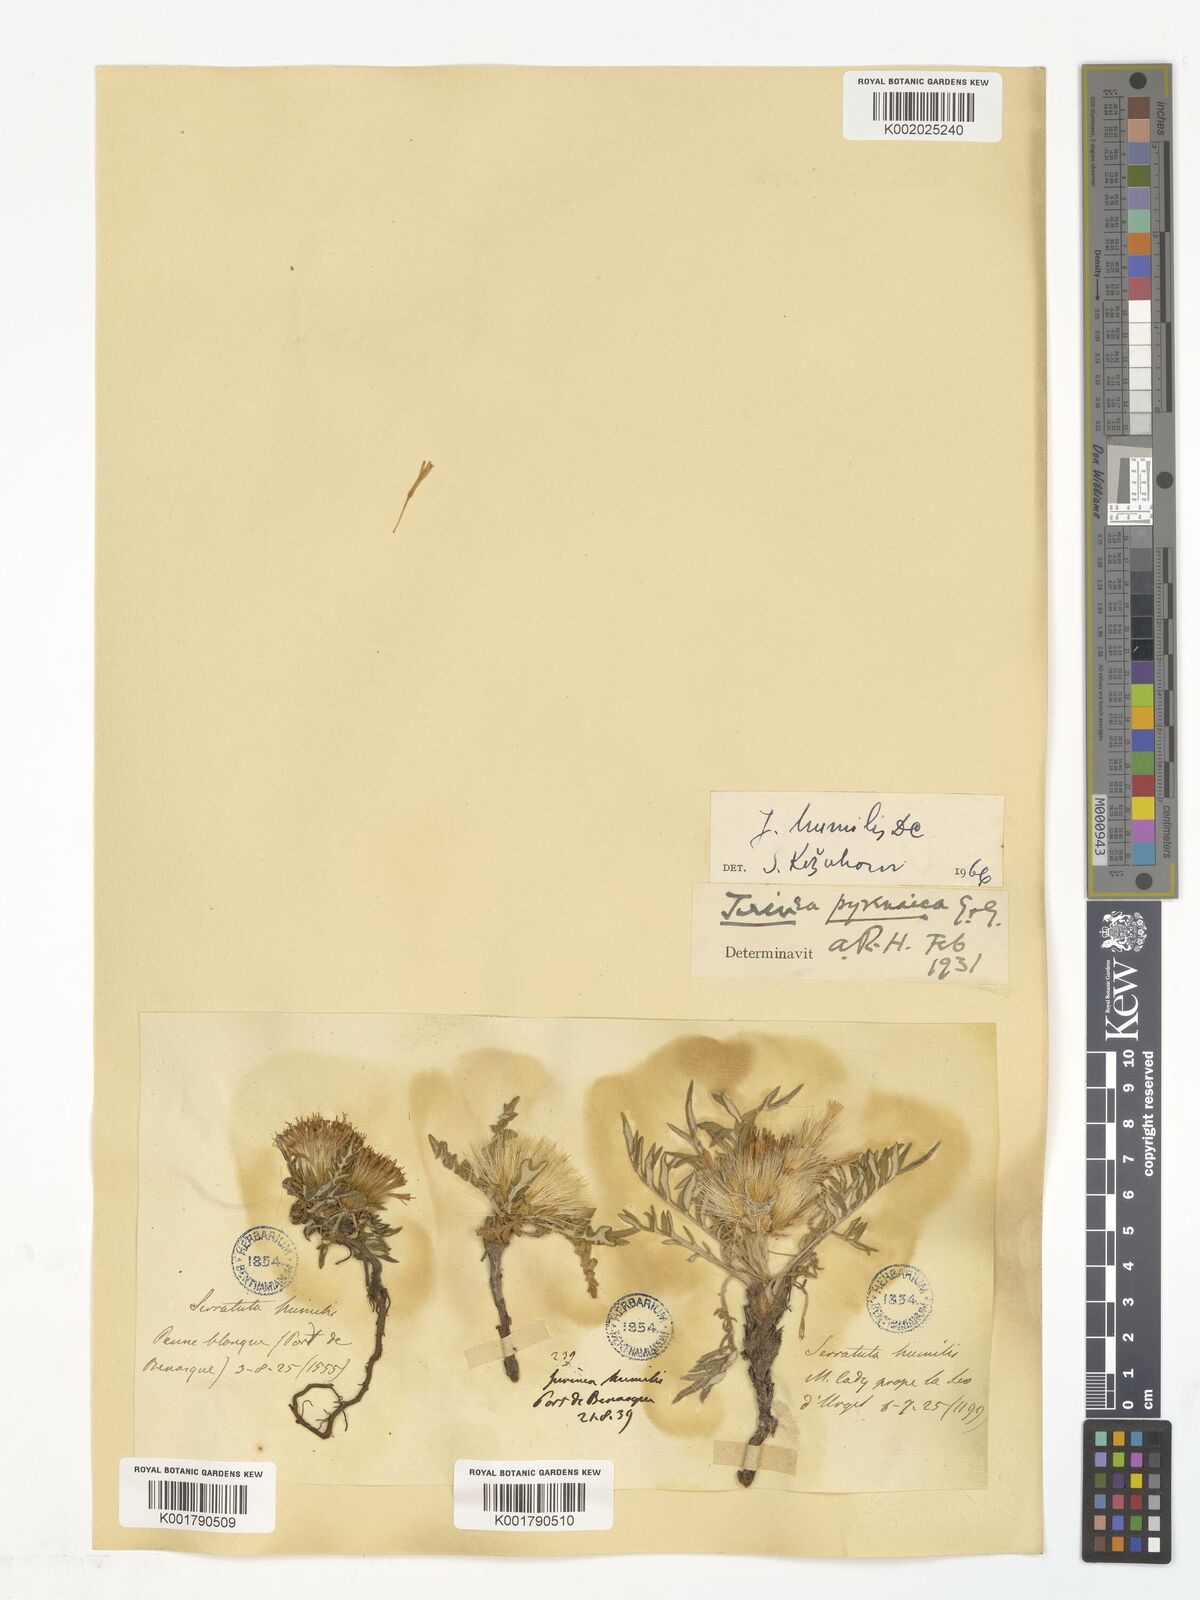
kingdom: Plantae
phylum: Tracheophyta
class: Magnoliopsida
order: Asterales
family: Asteraceae
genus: Jurinea
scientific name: Jurinea humilis
